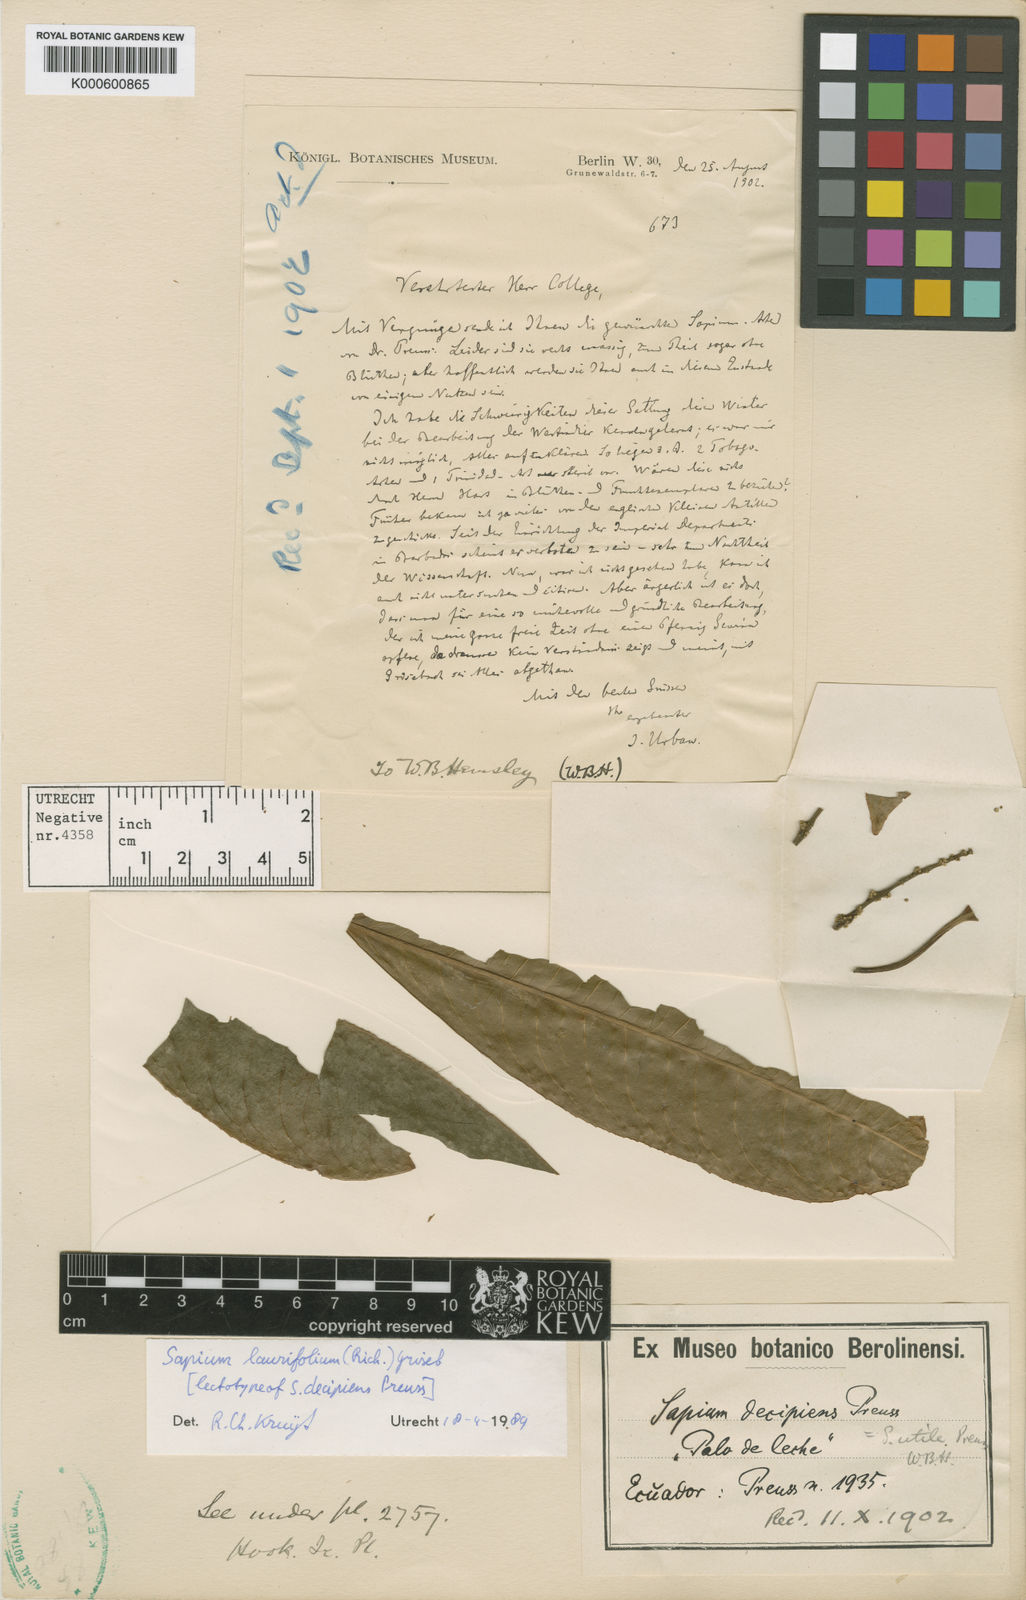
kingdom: Plantae
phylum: Tracheophyta
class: Magnoliopsida
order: Malpighiales
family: Euphorbiaceae
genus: Sapium
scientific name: Sapium
